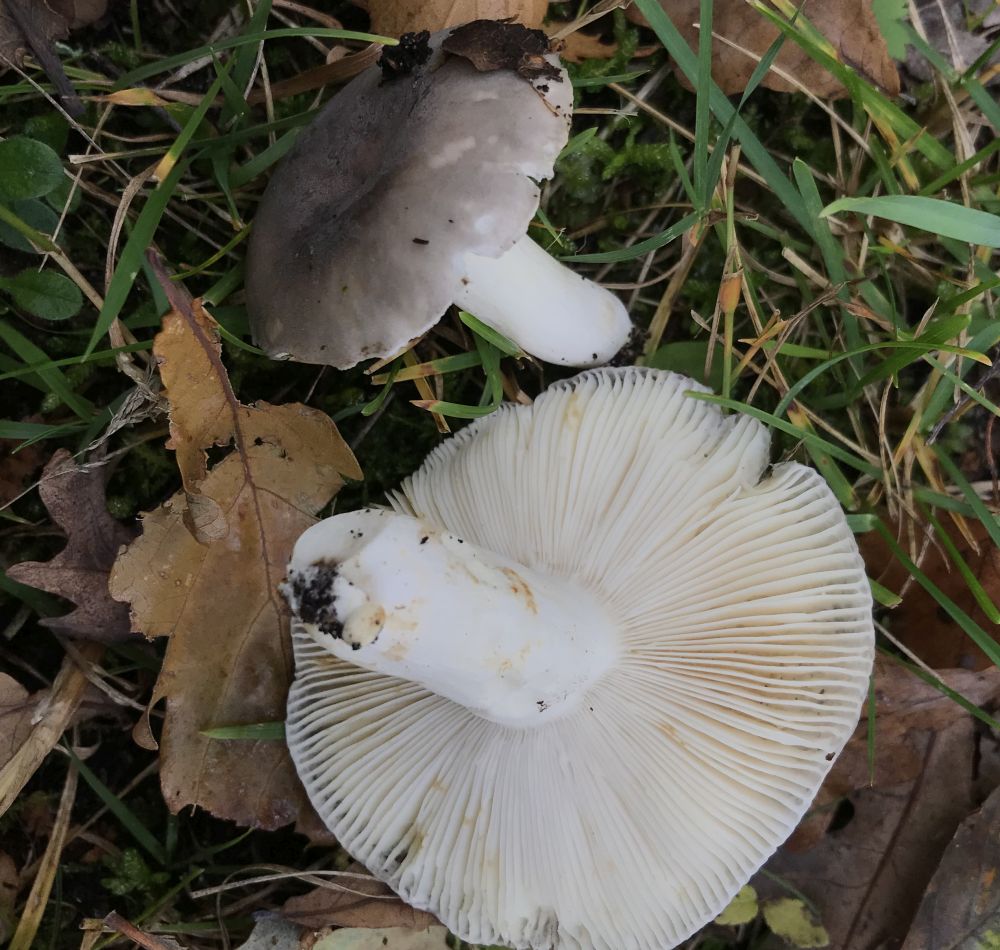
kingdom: Fungi
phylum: Basidiomycota
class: Agaricomycetes
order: Russulales
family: Russulaceae
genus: Russula
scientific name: Russula
